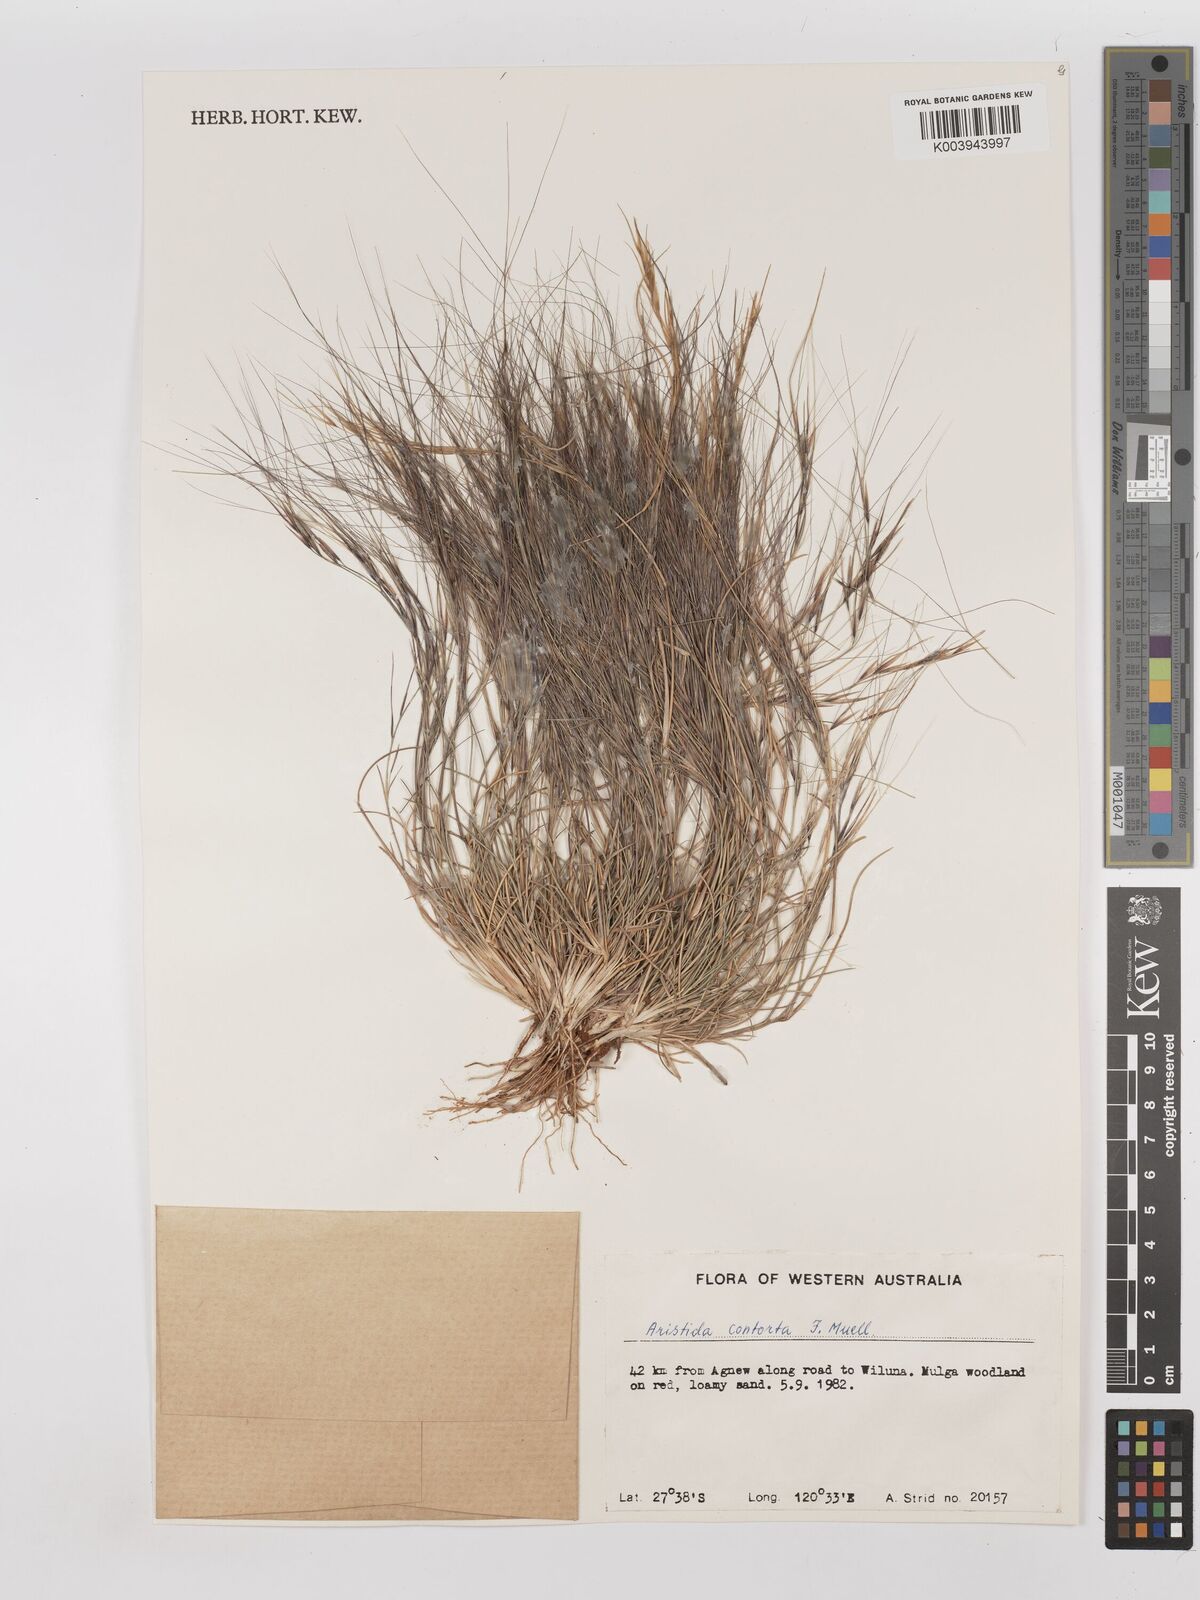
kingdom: Plantae
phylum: Tracheophyta
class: Liliopsida
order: Poales
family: Poaceae
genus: Aristida
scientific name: Aristida contorta
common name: Bunch kerosene grass
